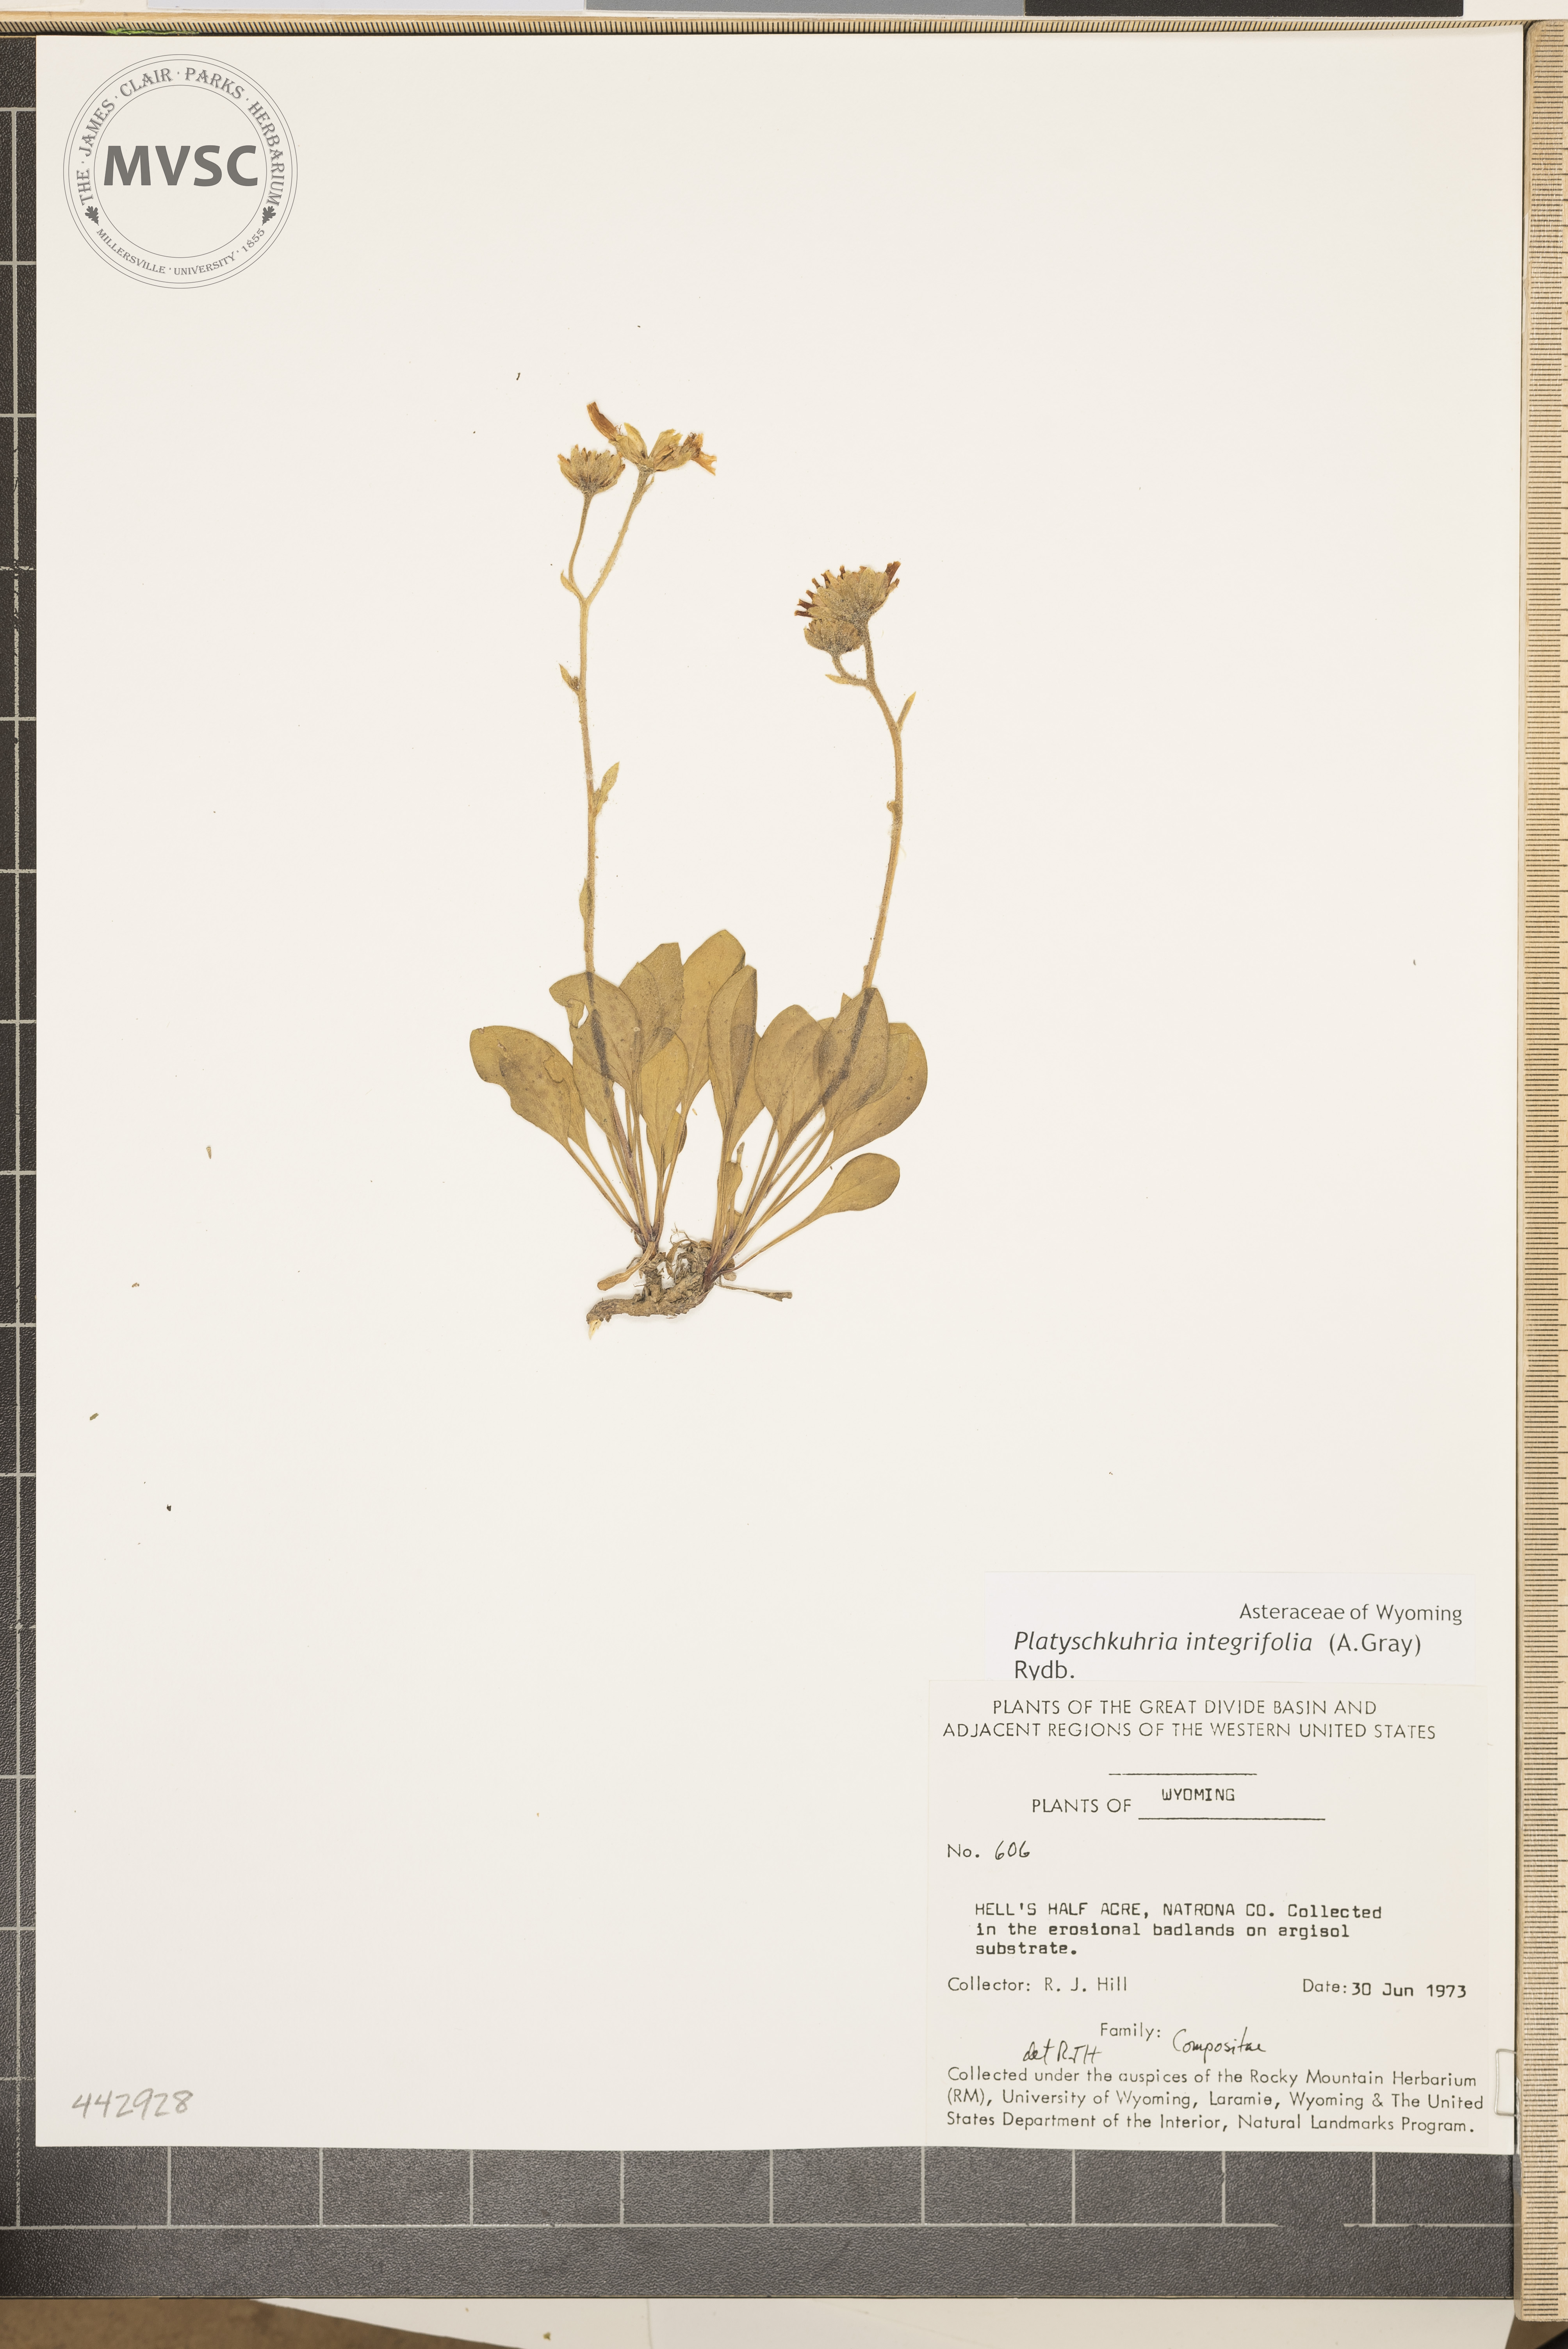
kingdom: Plantae
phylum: Tracheophyta
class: Magnoliopsida
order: Asterales
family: Asteraceae
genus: Platyschkuhria
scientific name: Platyschkuhria integrifolia
